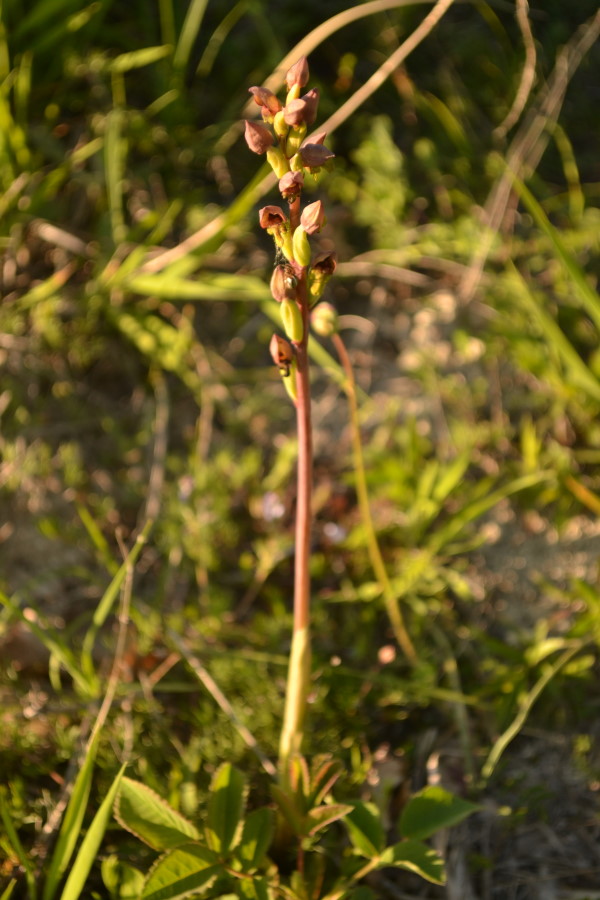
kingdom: Plantae
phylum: Tracheophyta
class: Liliopsida
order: Asparagales
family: Orchidaceae
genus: Steveniella
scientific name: Steveniella satyrioides
